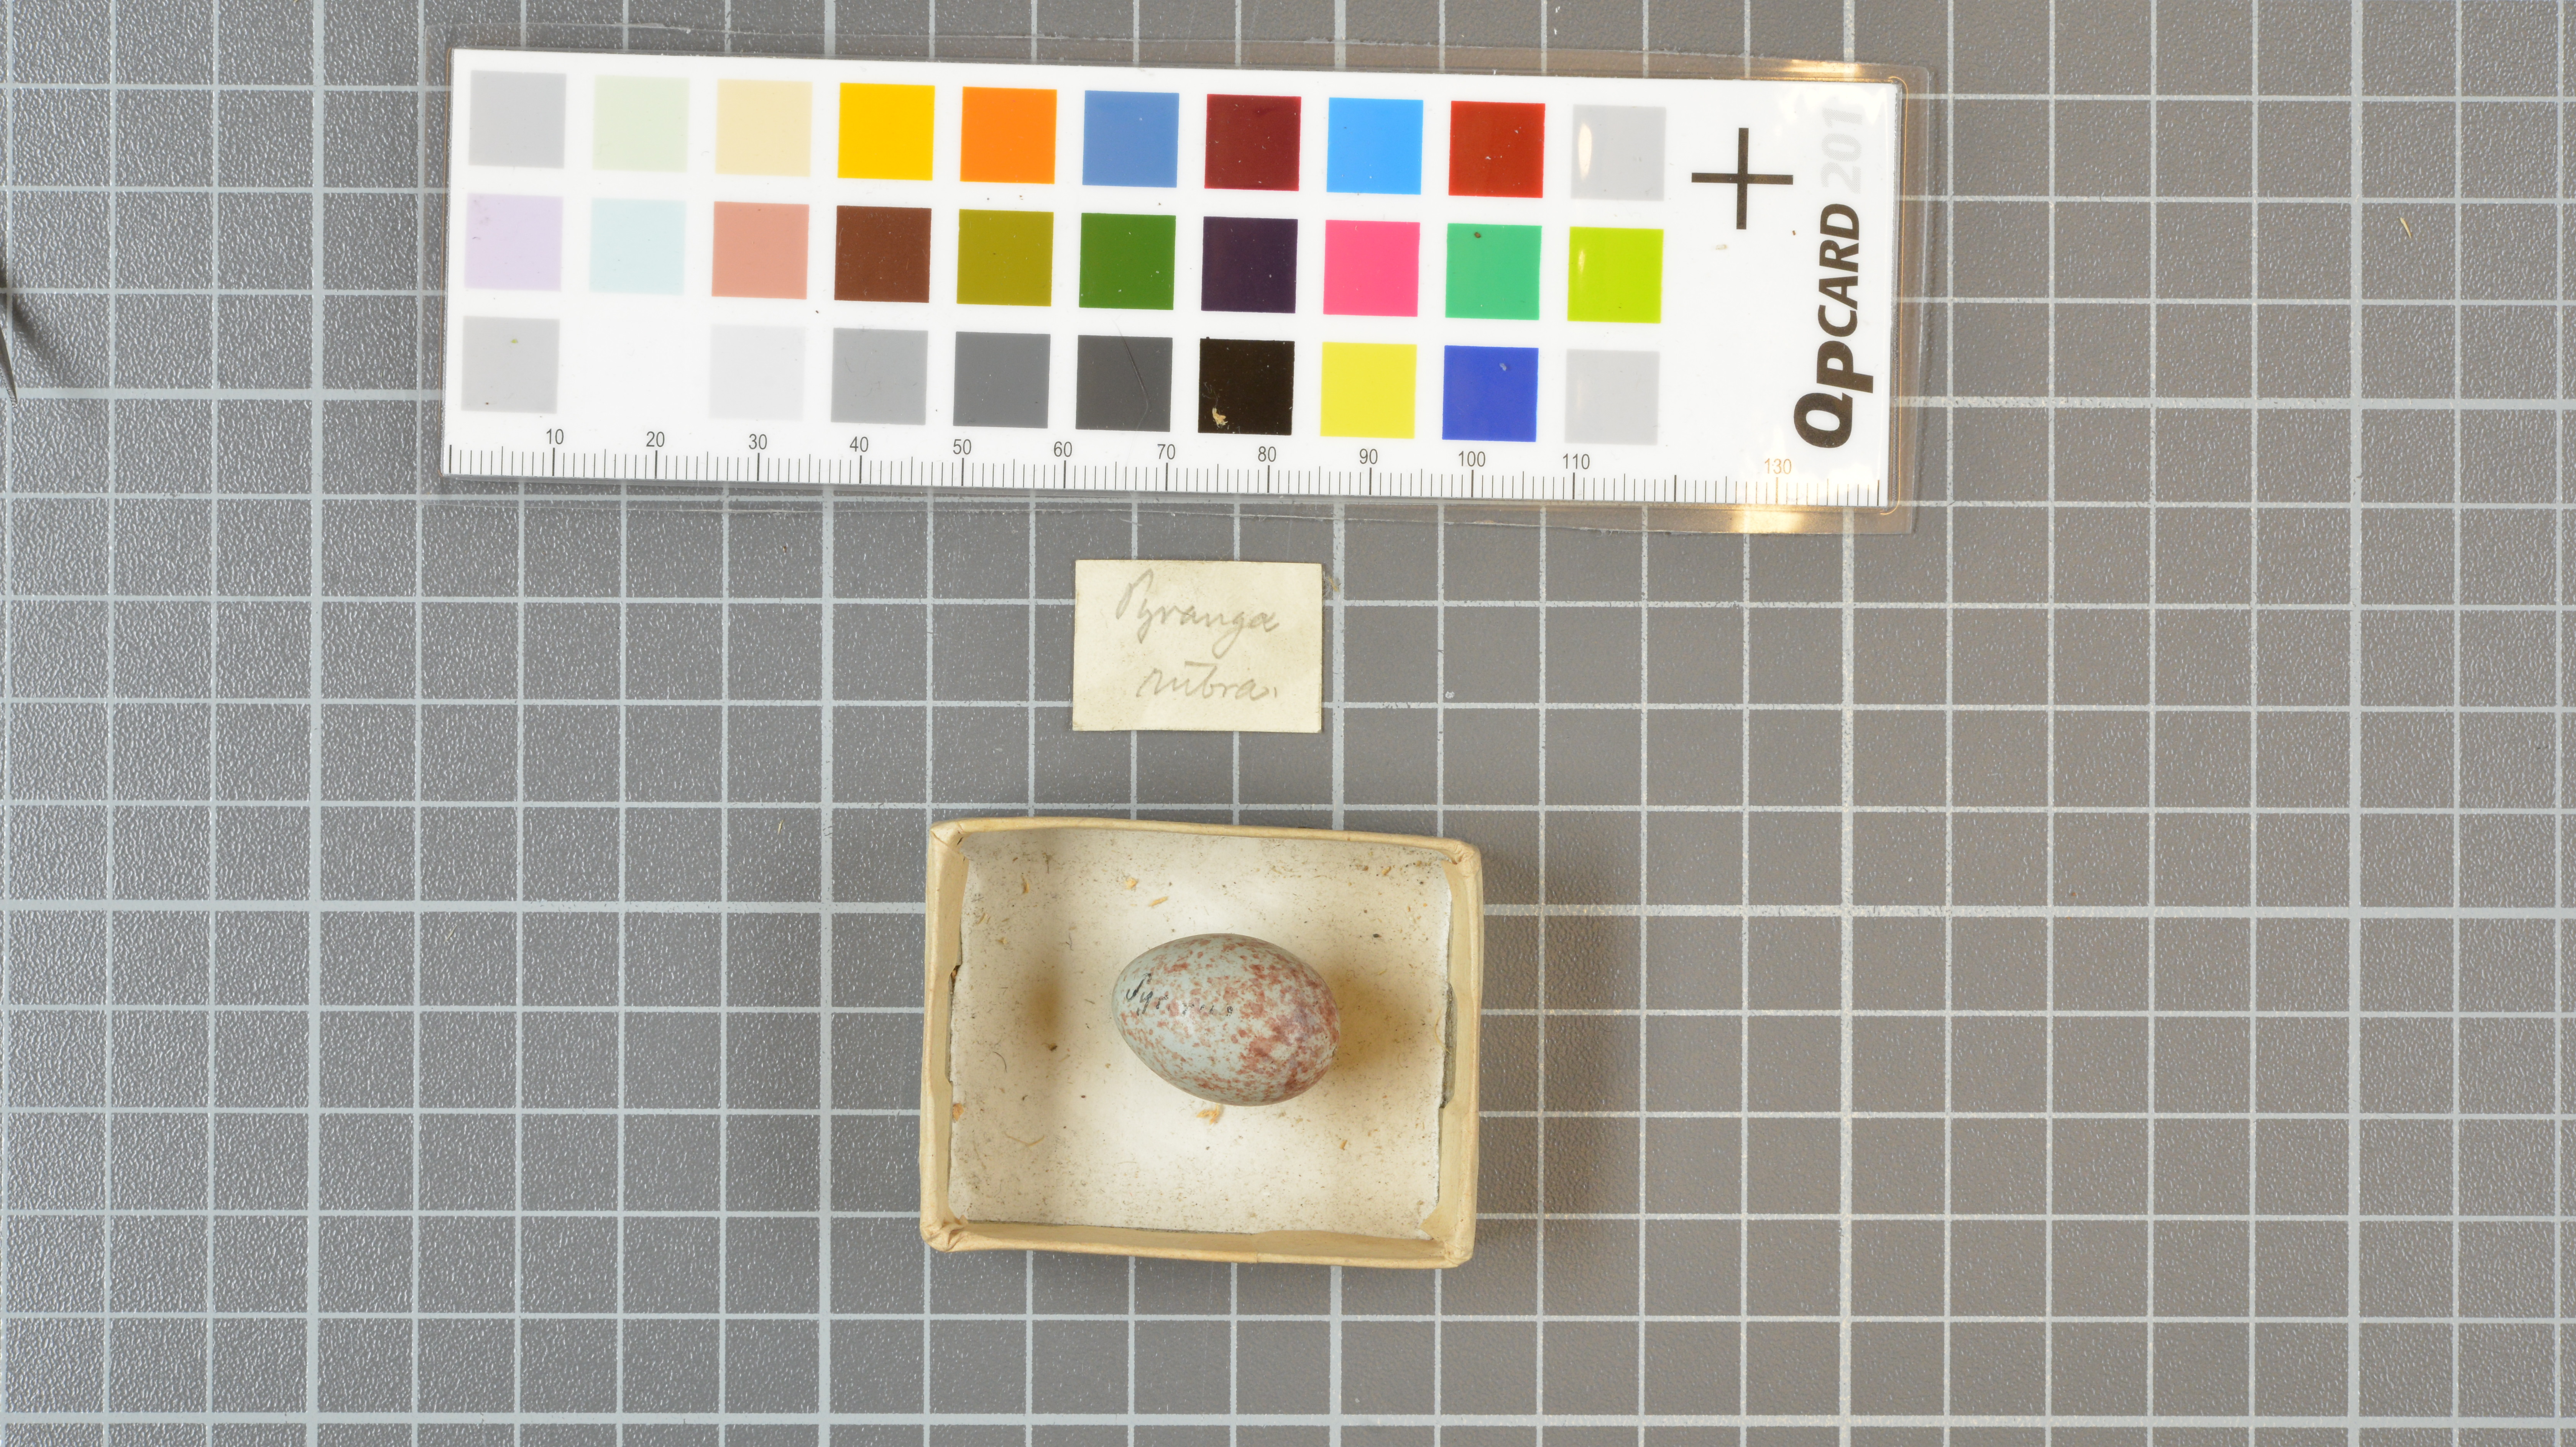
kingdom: Animalia
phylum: Chordata
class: Aves
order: Passeriformes
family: Cardinalidae
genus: Piranga
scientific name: Piranga rubra
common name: Summer tanager
